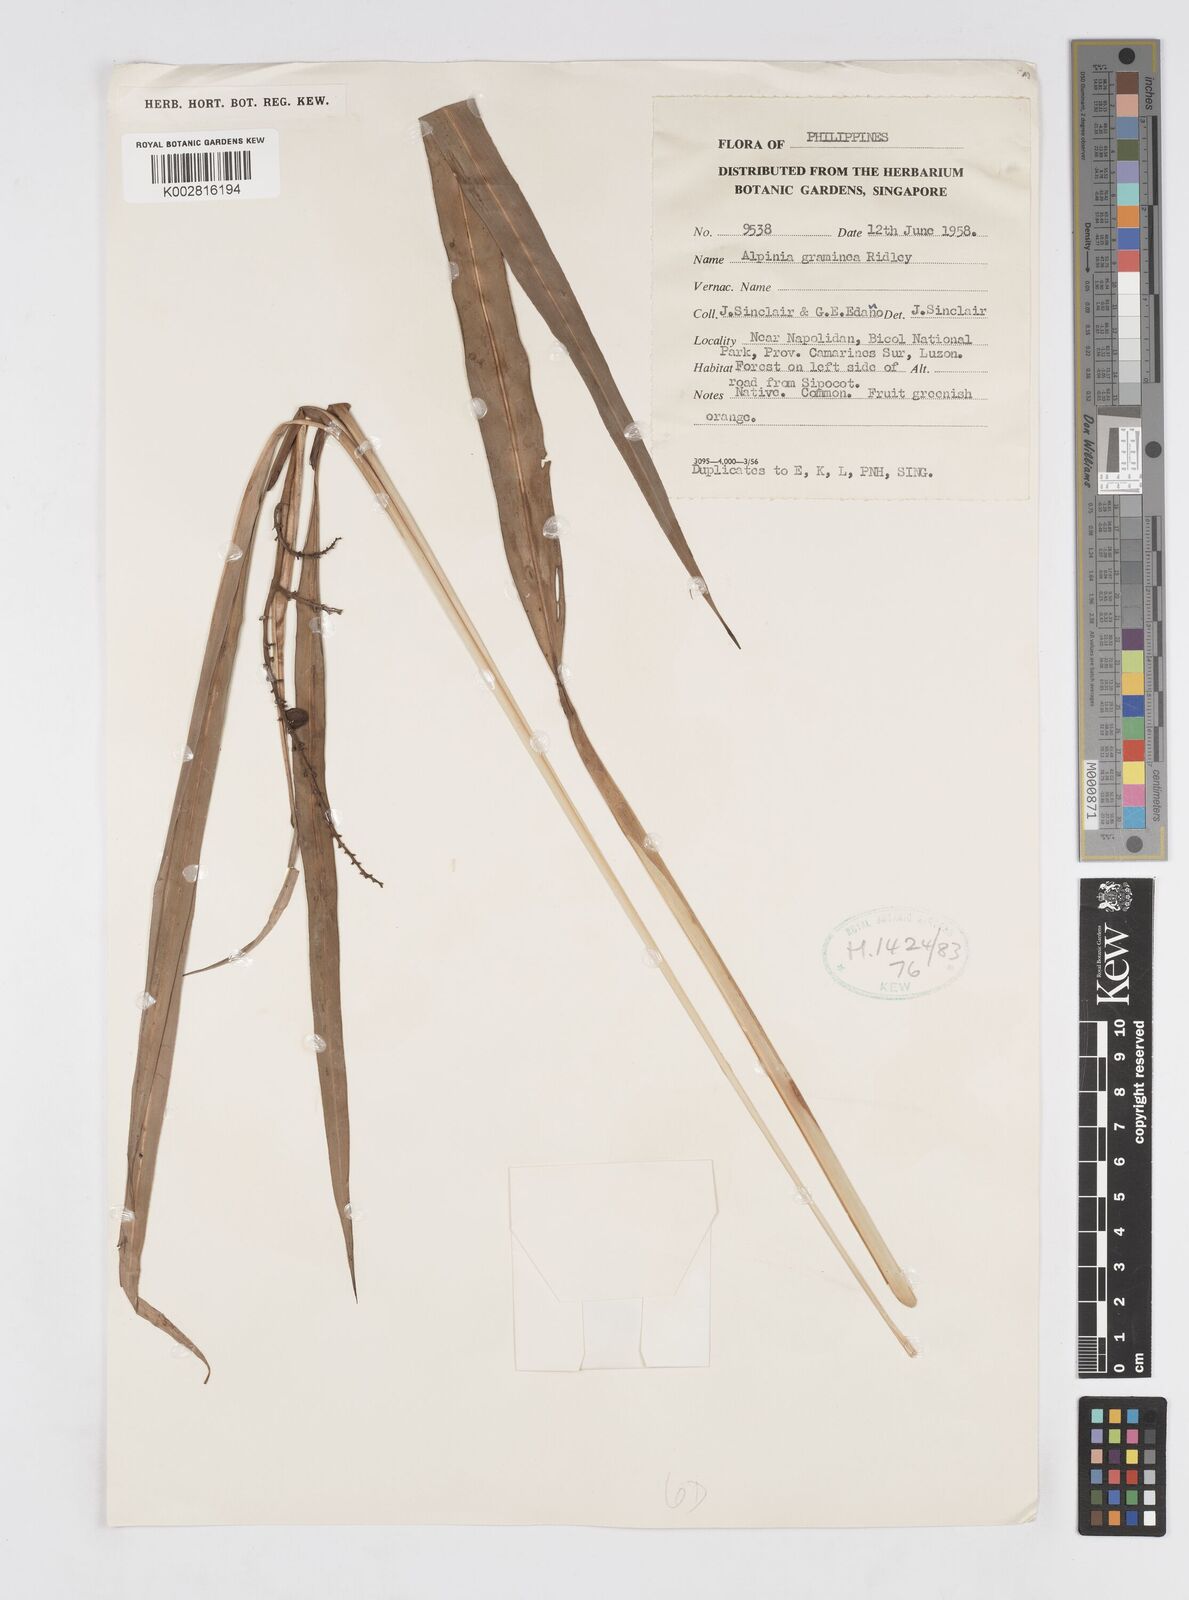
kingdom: Plantae
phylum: Tracheophyta
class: Liliopsida
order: Zingiberales
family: Zingiberaceae
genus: Alpinia
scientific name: Alpinia graminea
